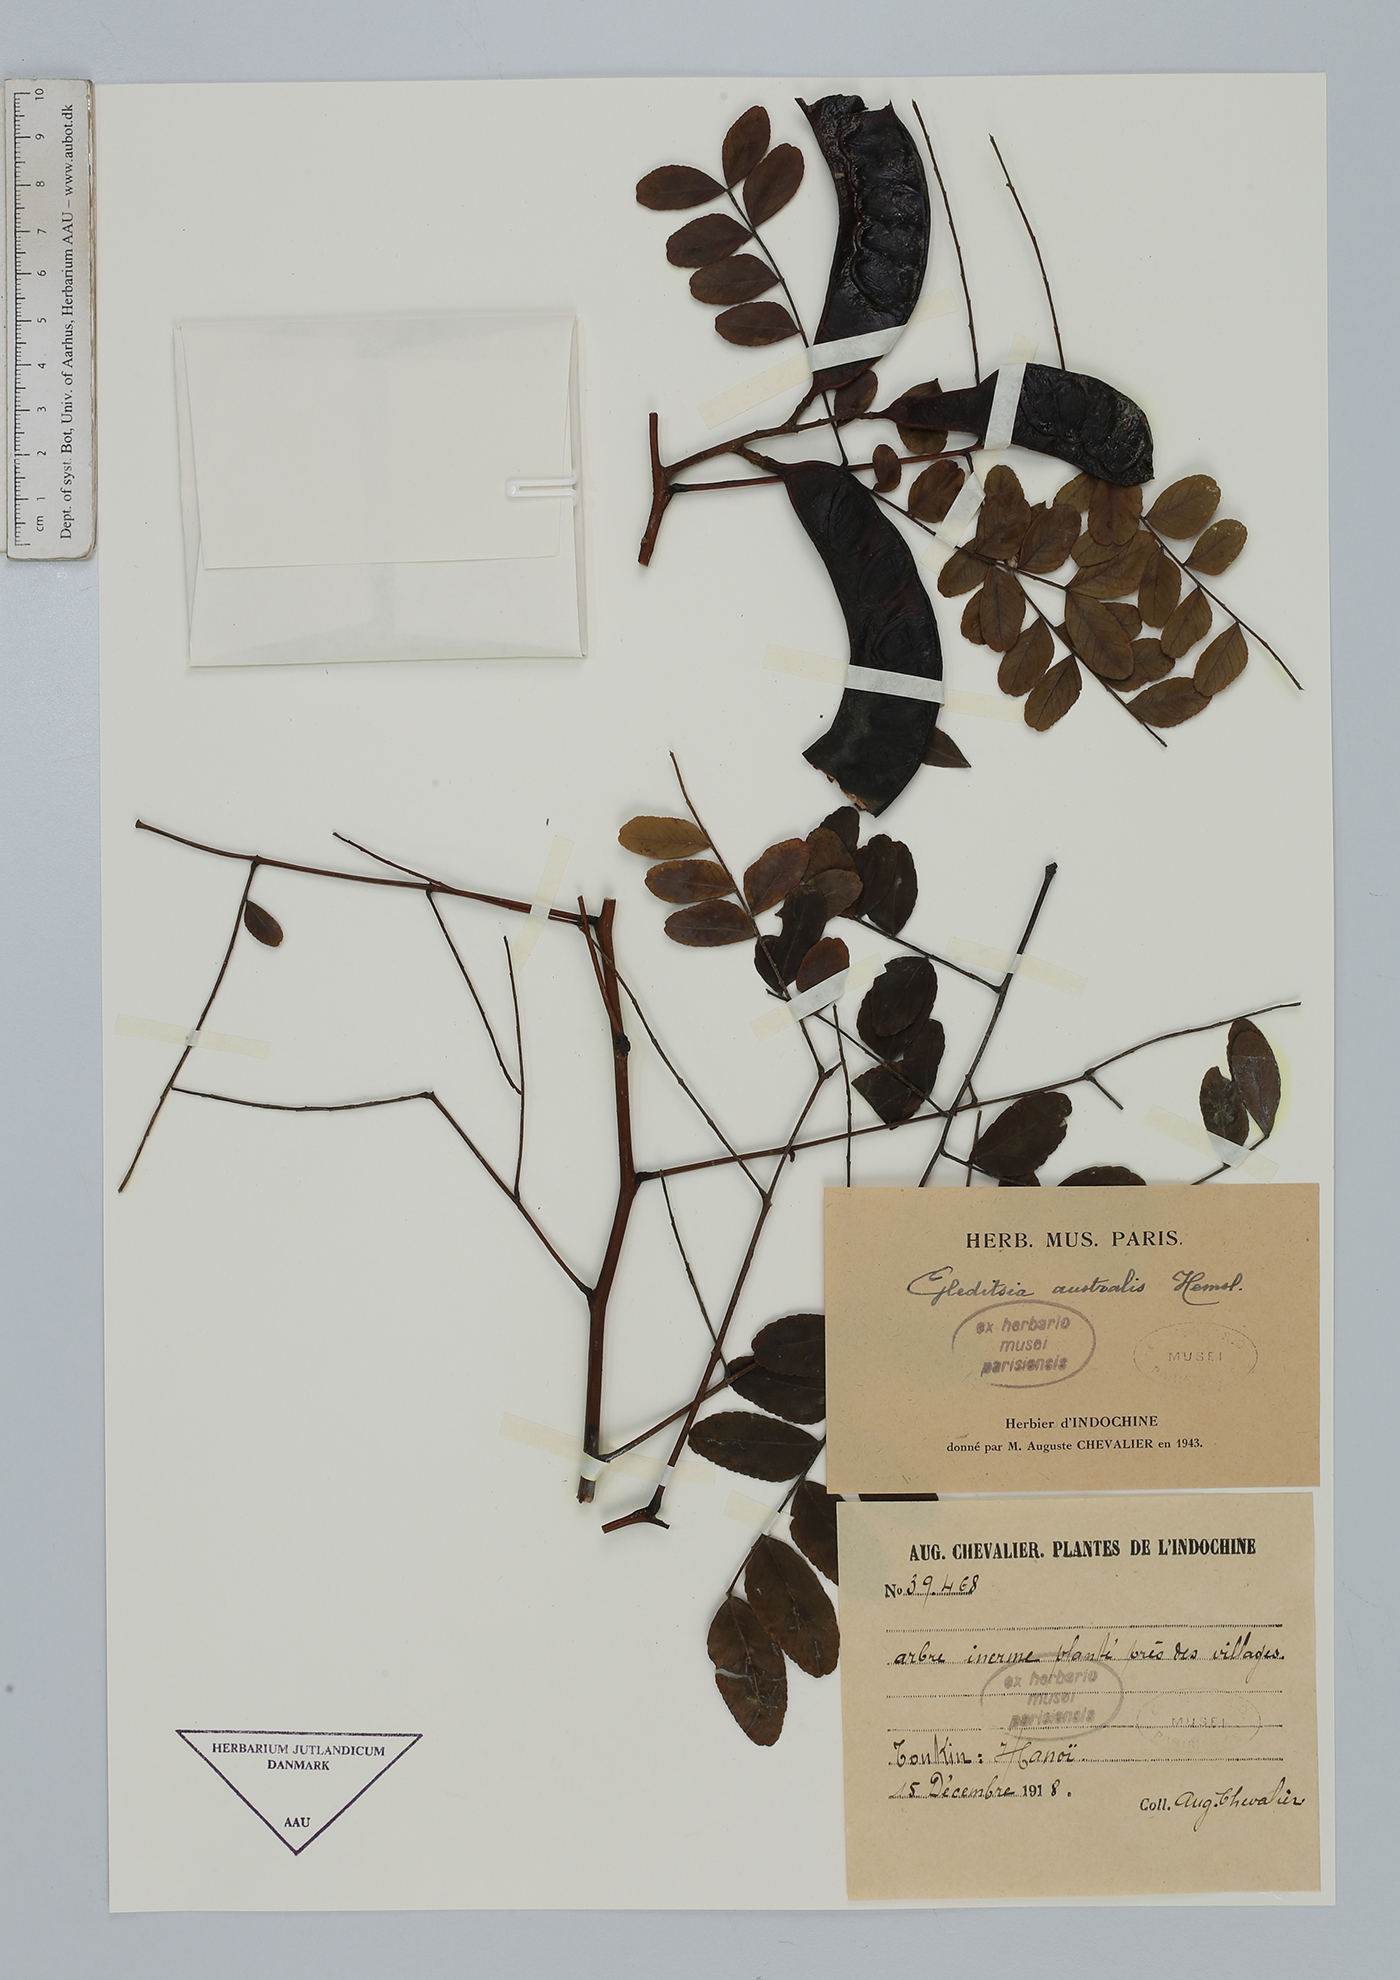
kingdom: Plantae
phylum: Tracheophyta
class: Magnoliopsida
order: Fabales
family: Fabaceae
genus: Gleditsia
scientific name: Gleditsia australis
